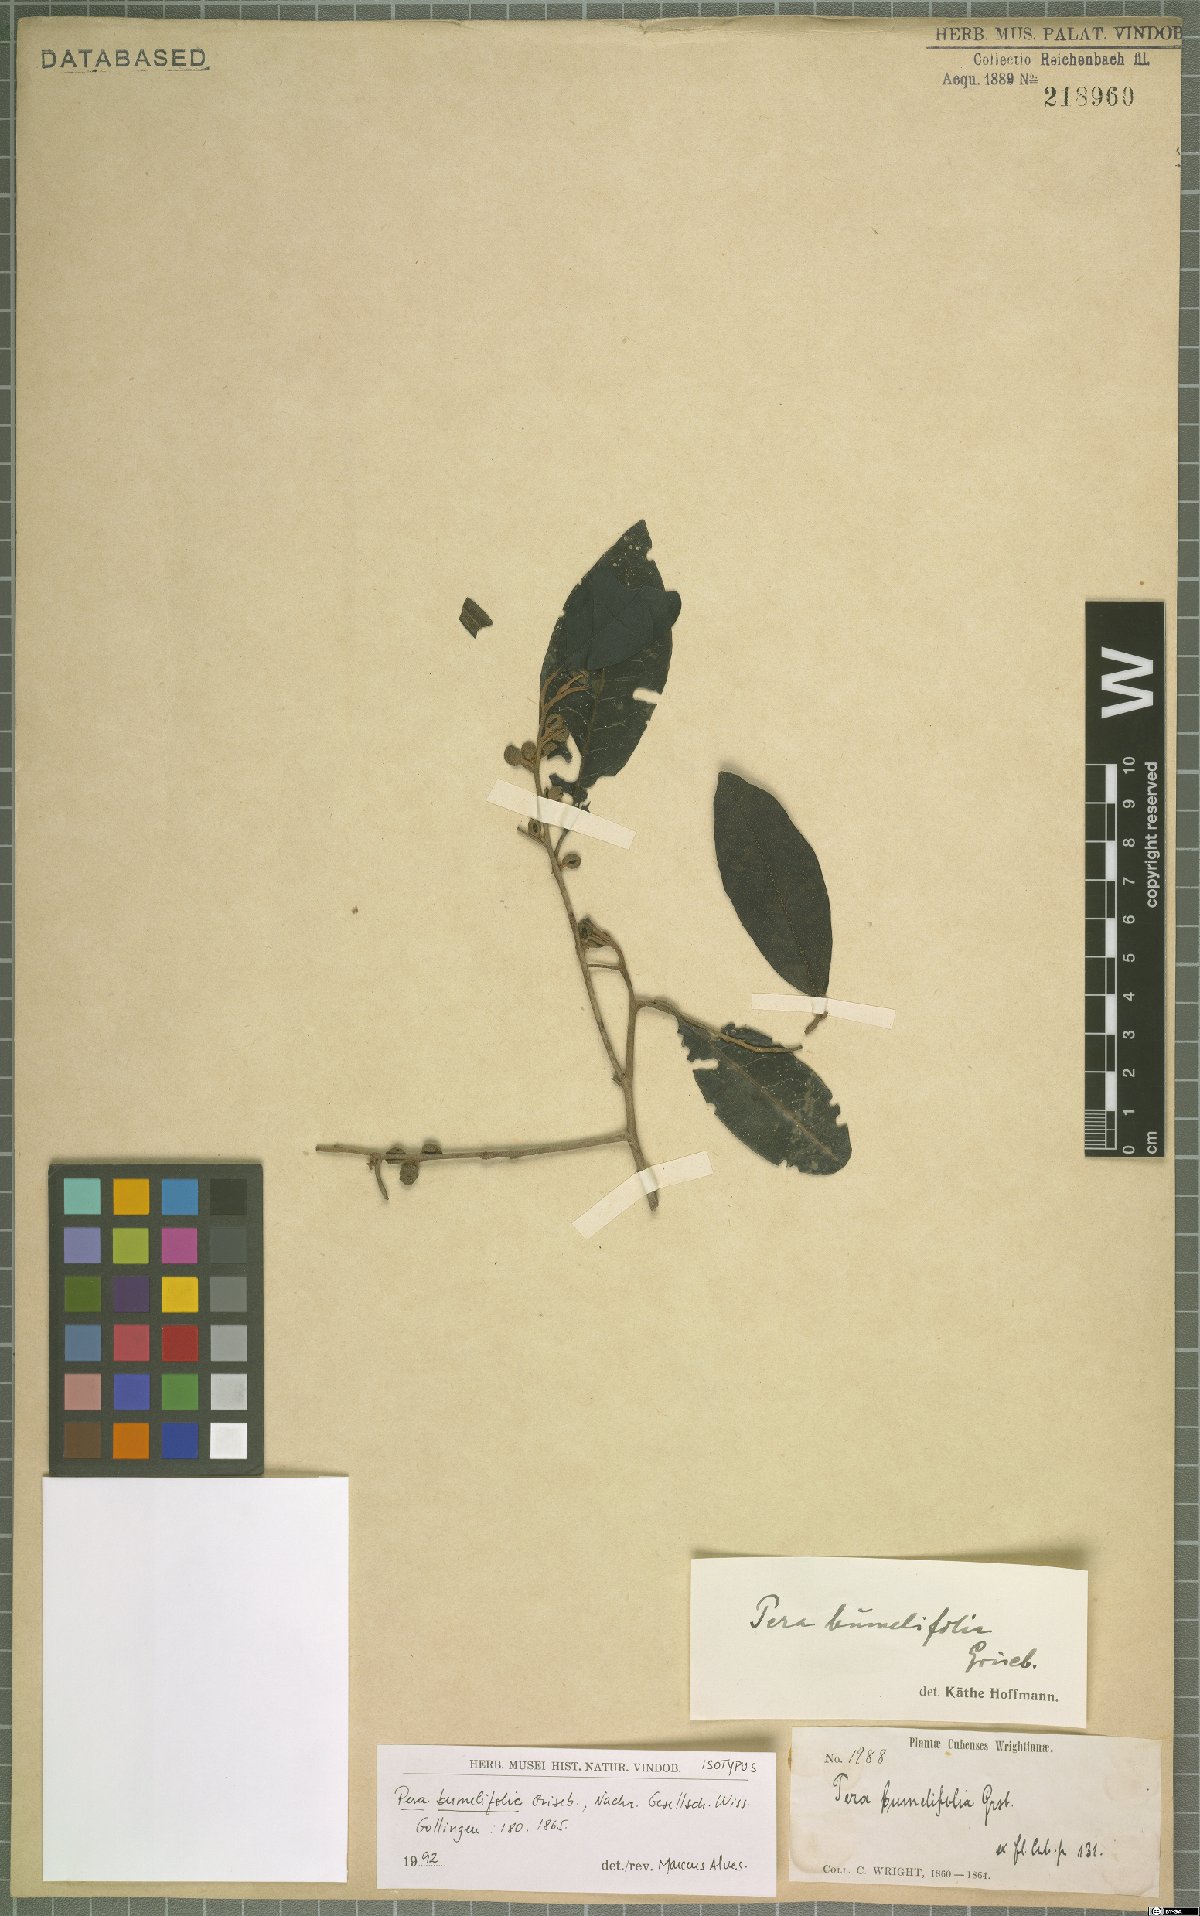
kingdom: Plantae
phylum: Tracheophyta
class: Magnoliopsida
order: Malpighiales
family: Peraceae
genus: Pera
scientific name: Pera bumeliifolia
